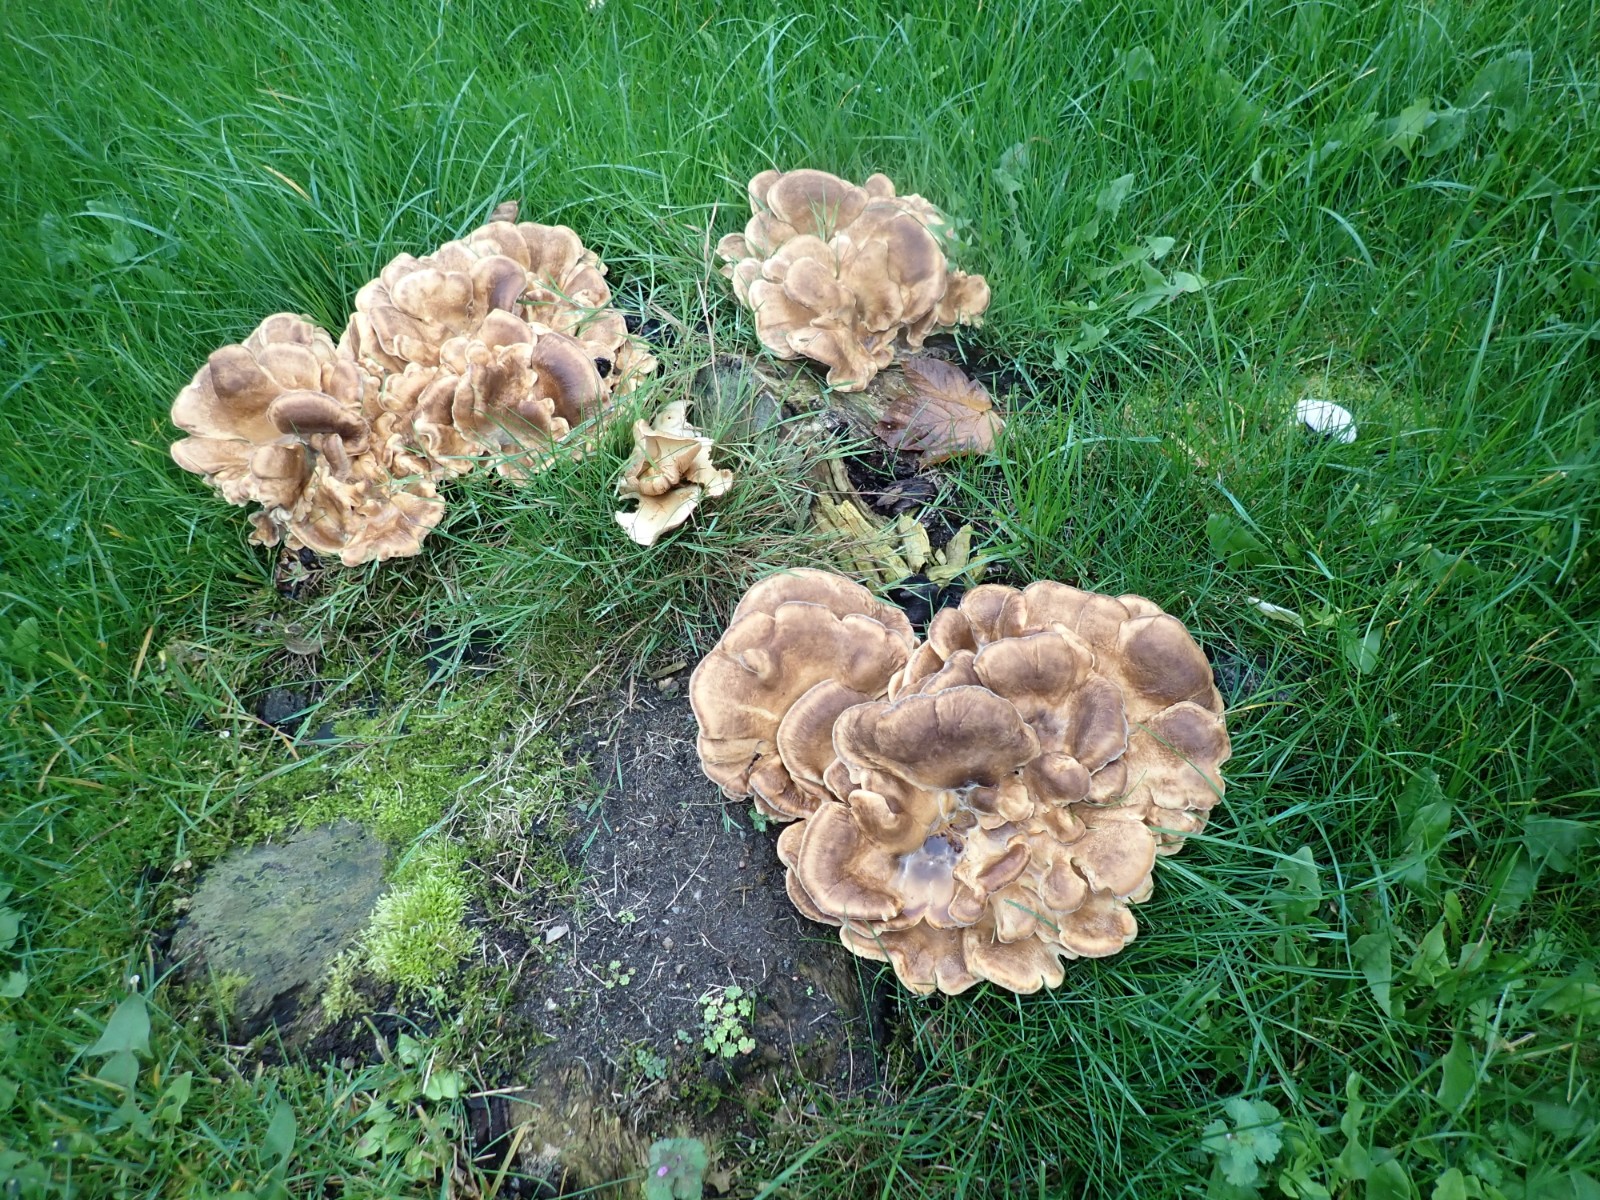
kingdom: Fungi
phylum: Basidiomycota
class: Agaricomycetes
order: Polyporales
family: Meripilaceae
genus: Meripilus
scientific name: Meripilus giganteus
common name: kæmpeporesvamp
